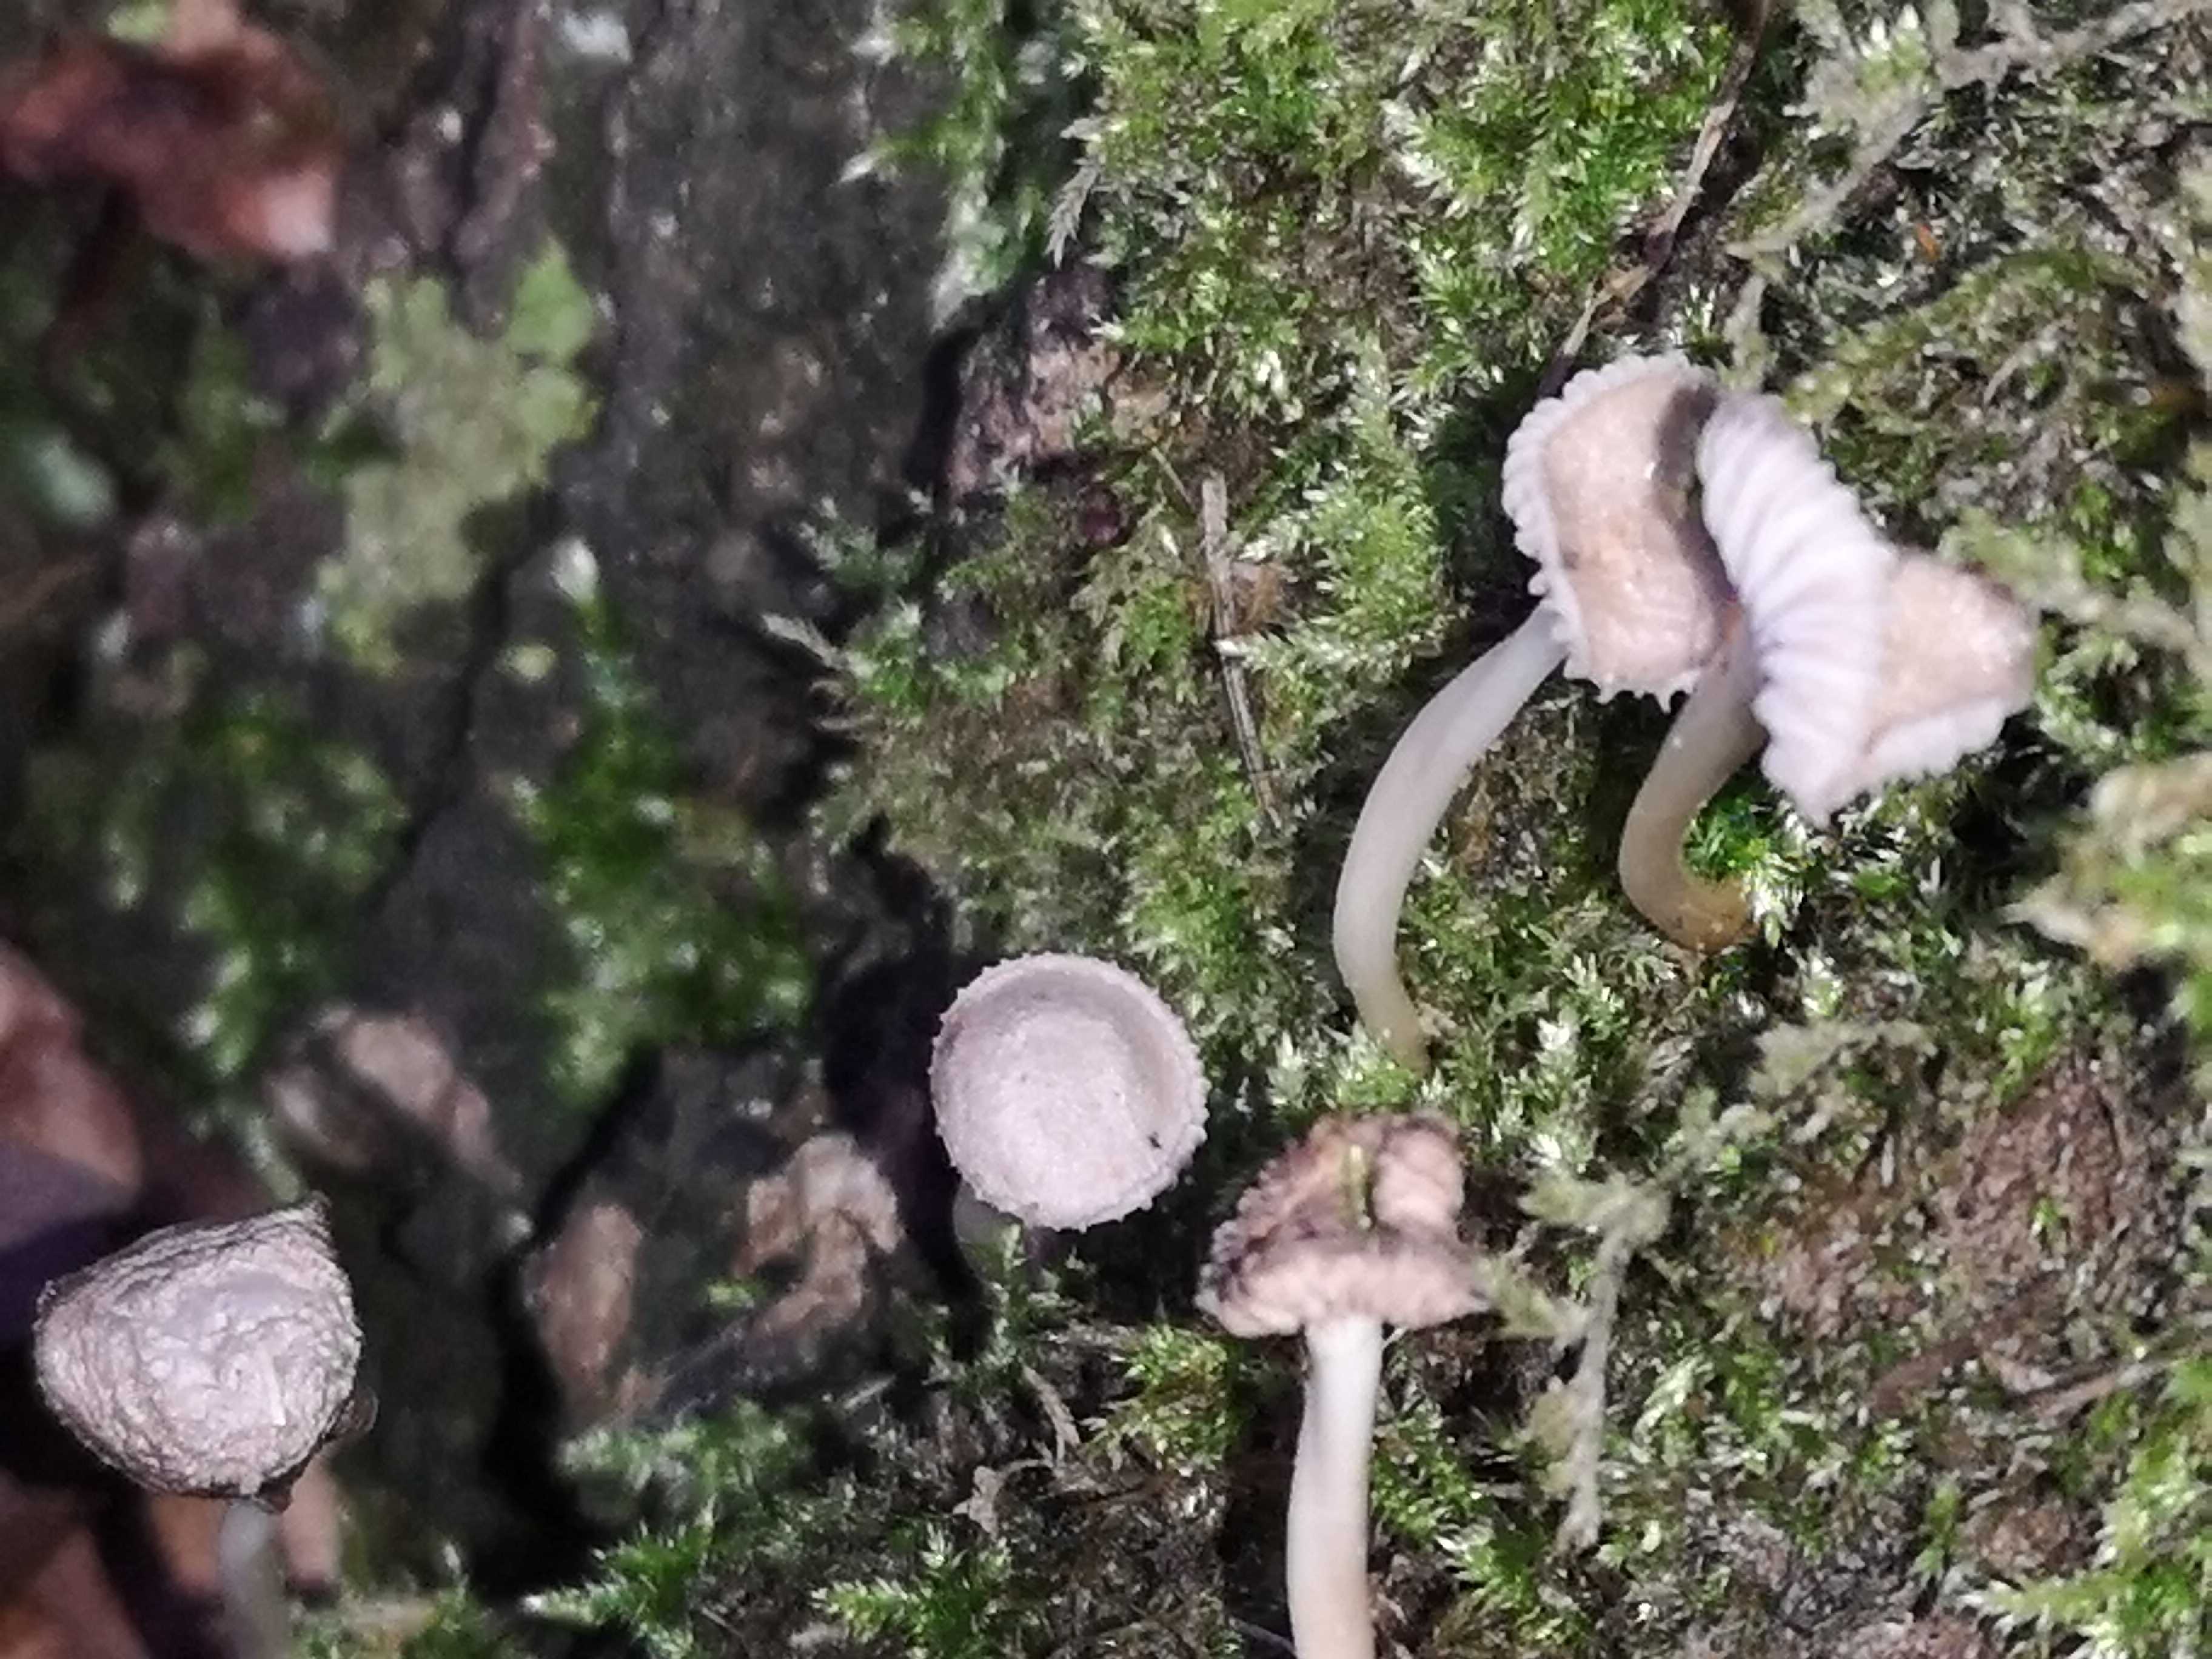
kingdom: Fungi
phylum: Basidiomycota
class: Agaricomycetes
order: Agaricales
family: Mycenaceae
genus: Mycena
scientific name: Mycena
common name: huesvamp
